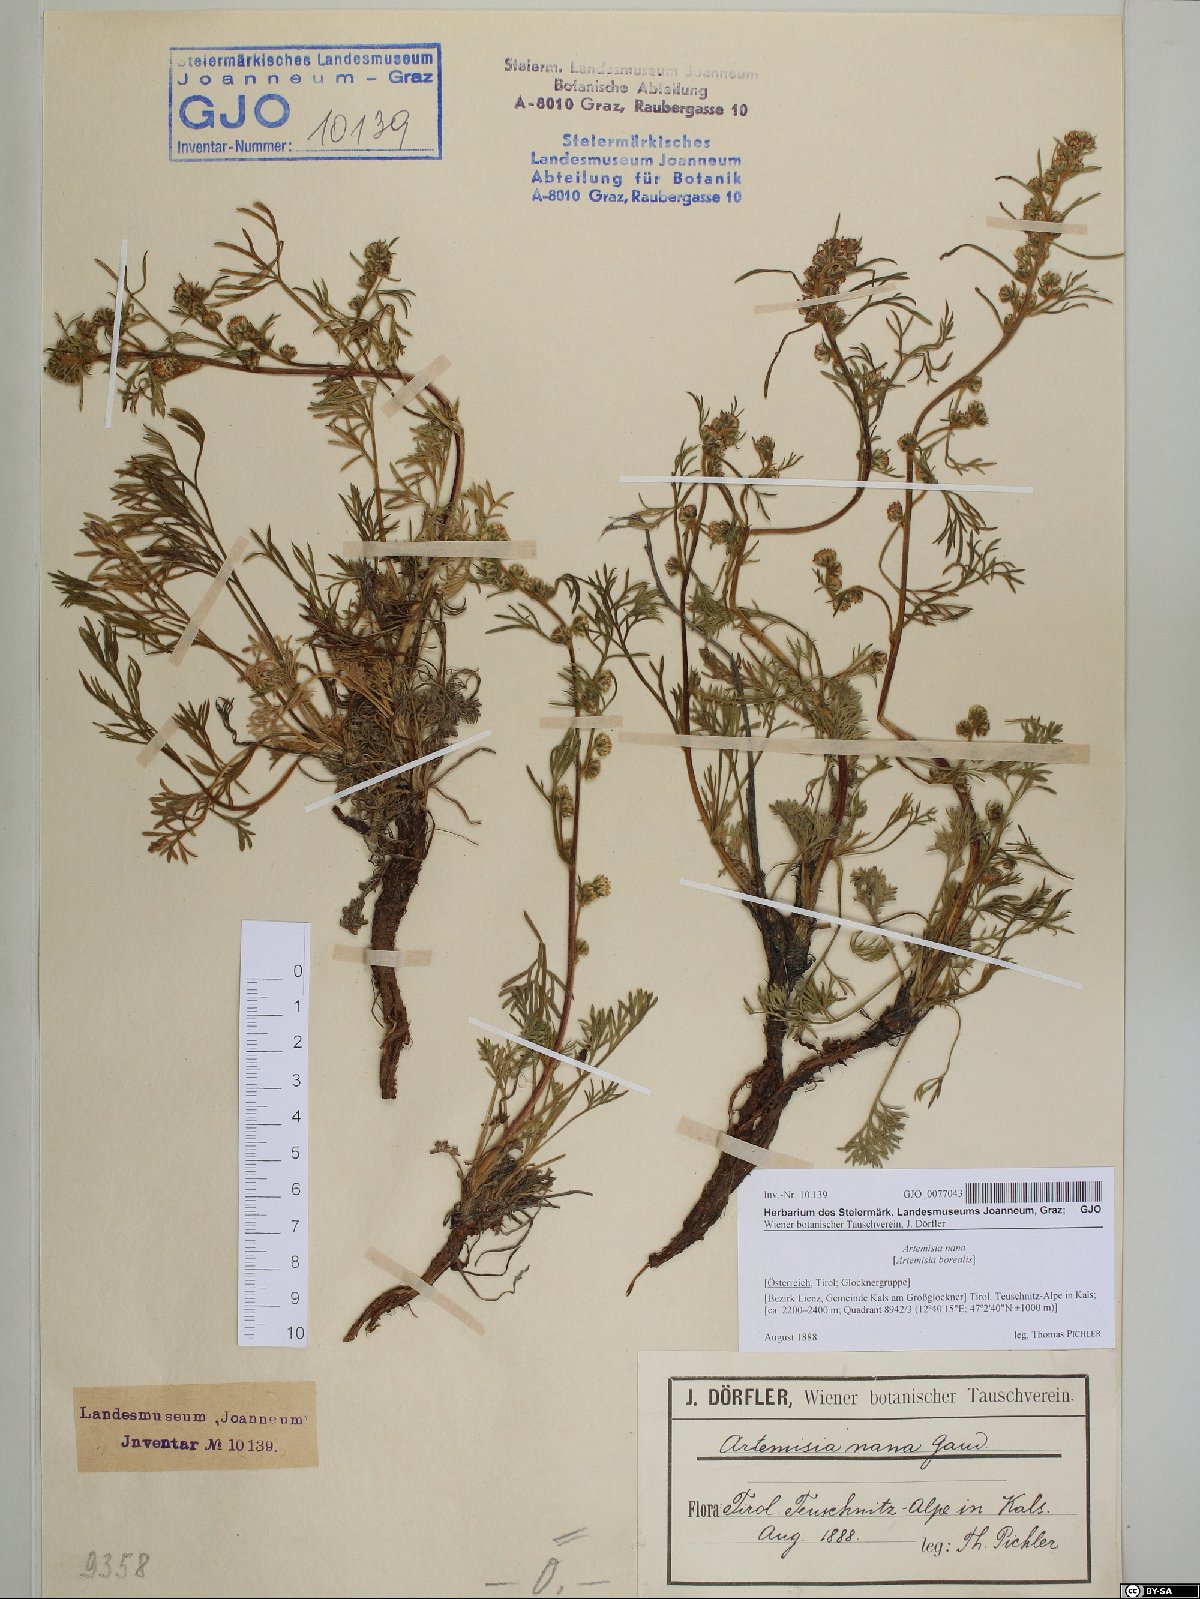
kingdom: Plantae
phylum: Tracheophyta
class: Magnoliopsida
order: Asterales
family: Asteraceae
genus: Artemisia
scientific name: Artemisia borealis
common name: Boreal sage
